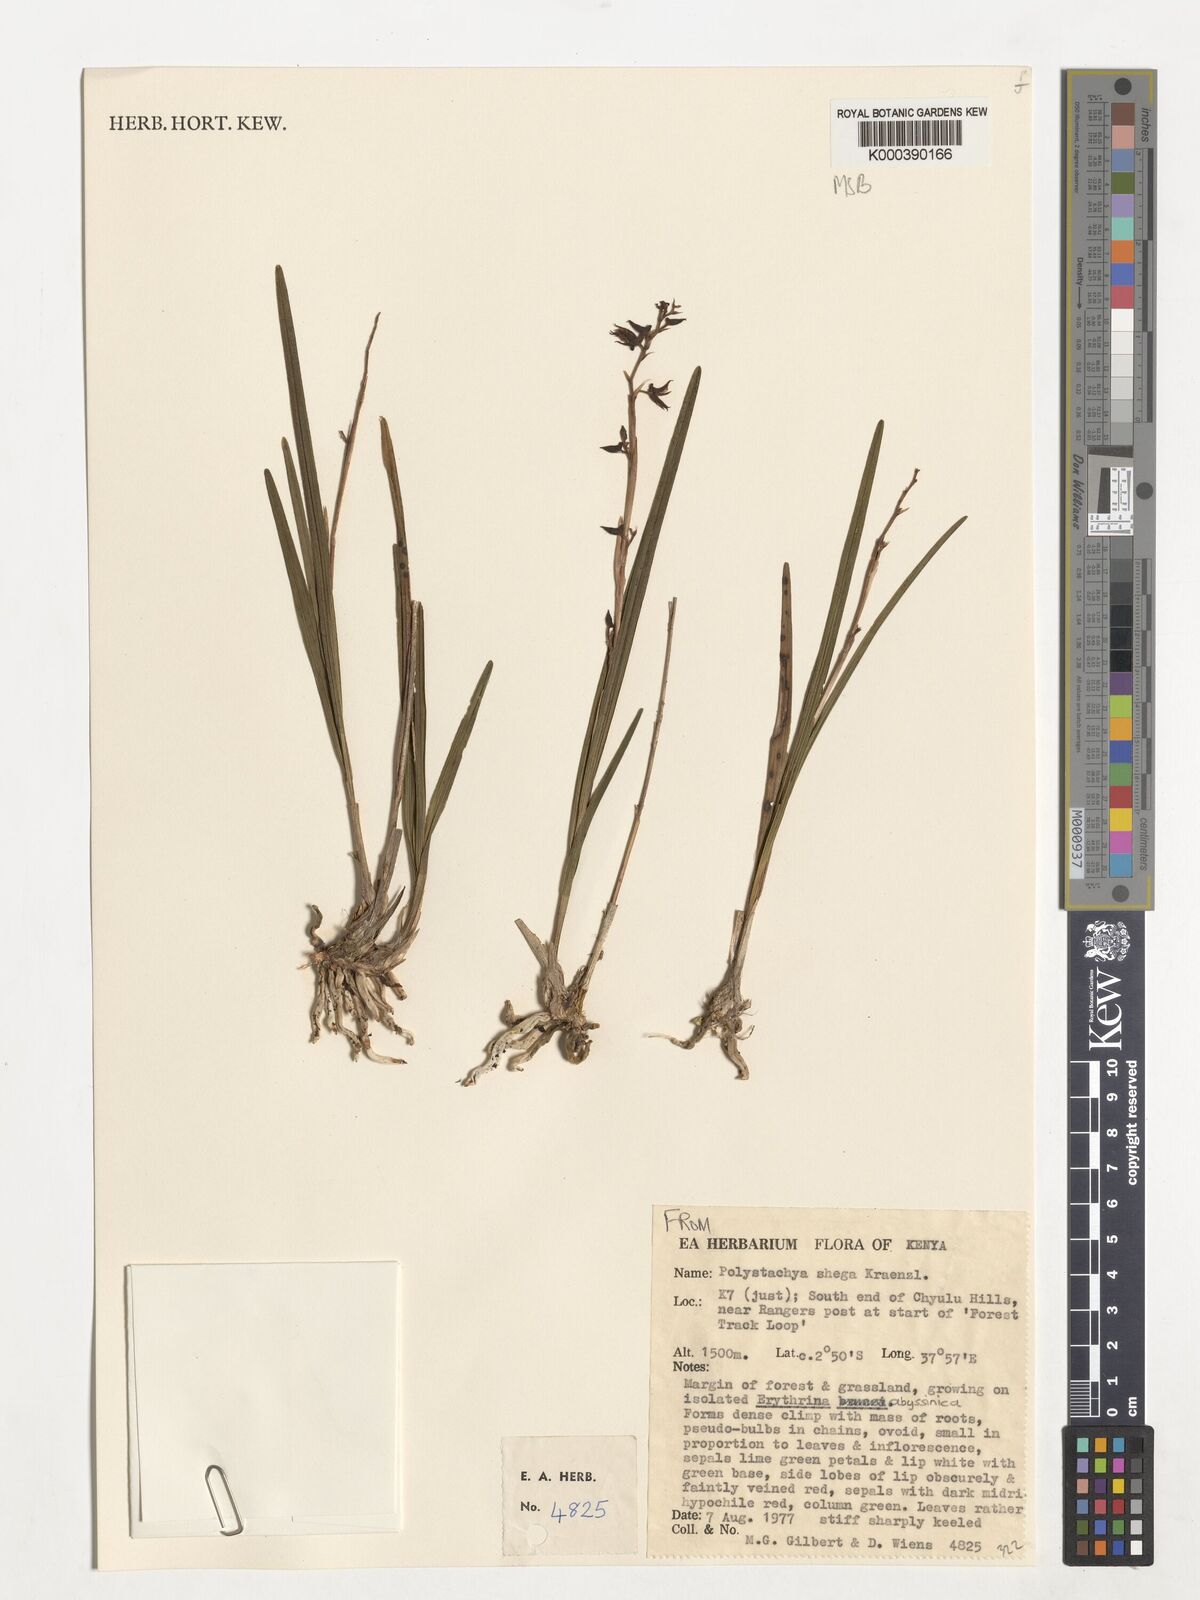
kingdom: Plantae
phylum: Tracheophyta
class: Liliopsida
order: Asparagales
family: Orchidaceae
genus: Polystachya
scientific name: Polystachya shega
